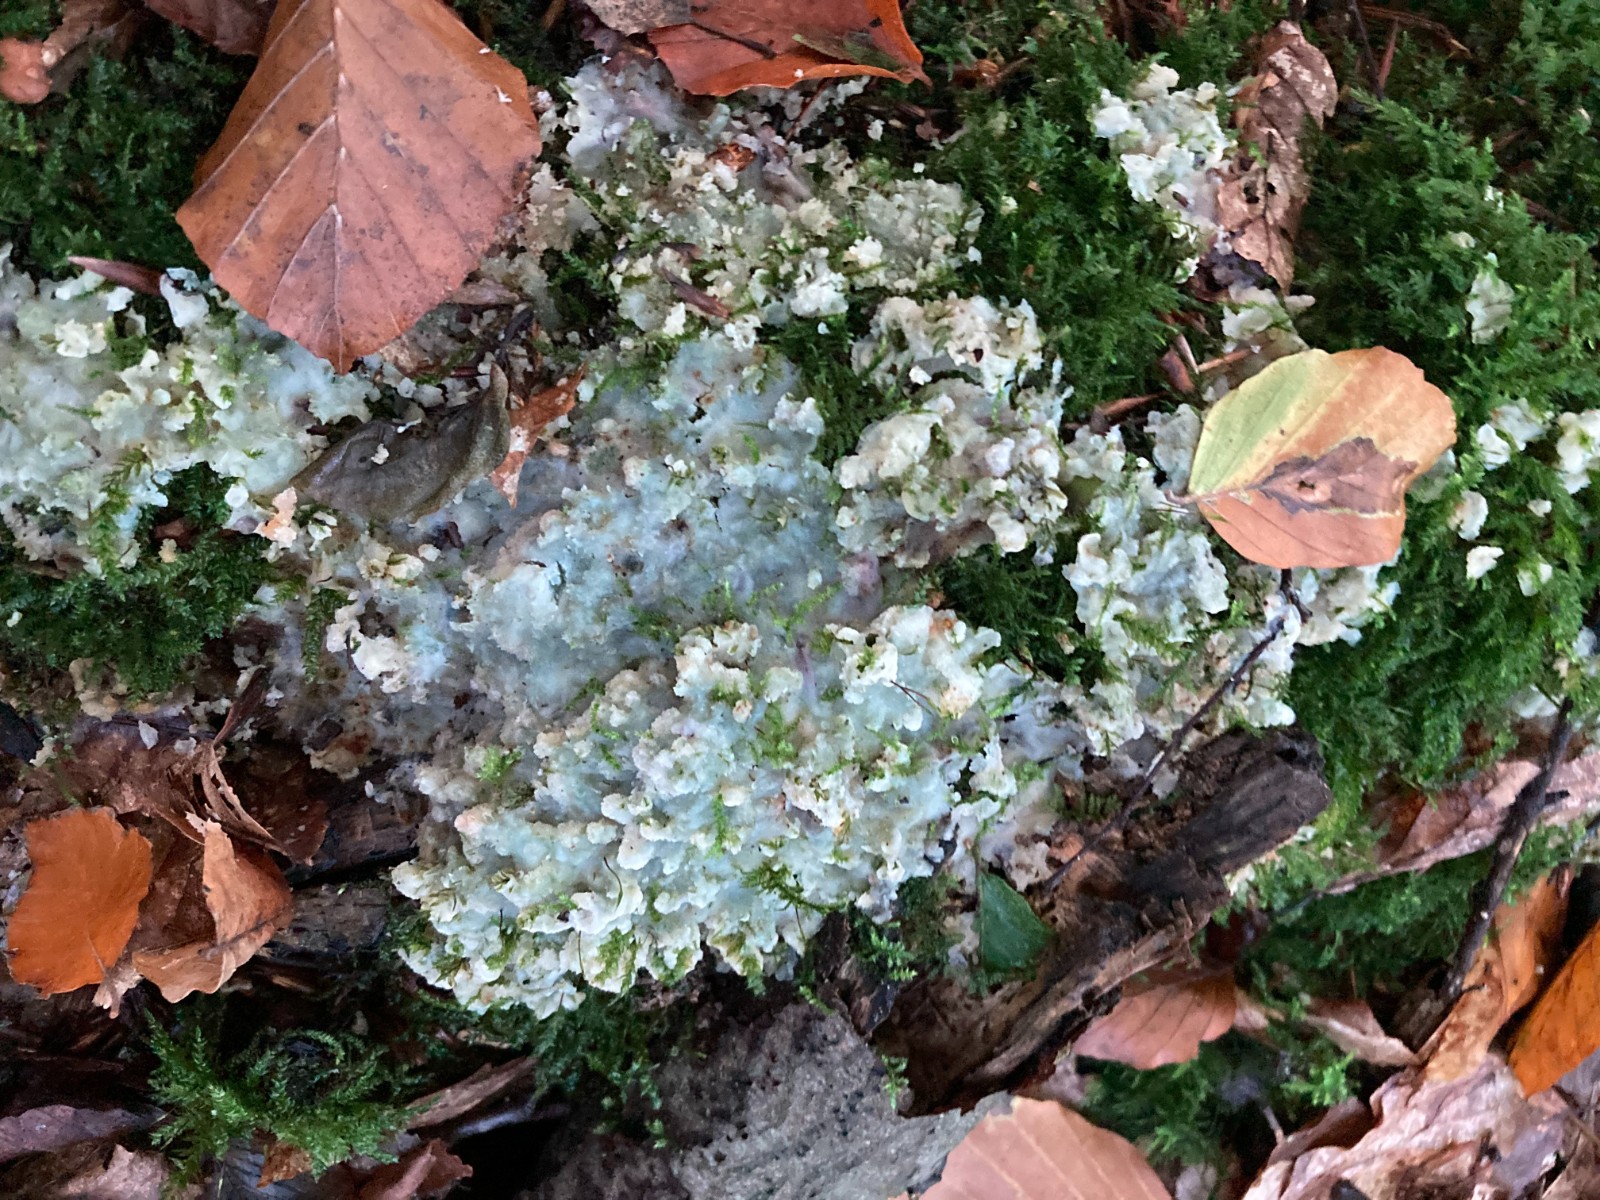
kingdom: Fungi
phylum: Basidiomycota
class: Agaricomycetes
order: Polyporales
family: Meruliaceae
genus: Physisporinus
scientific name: Physisporinus vitreus
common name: mastesvamp
